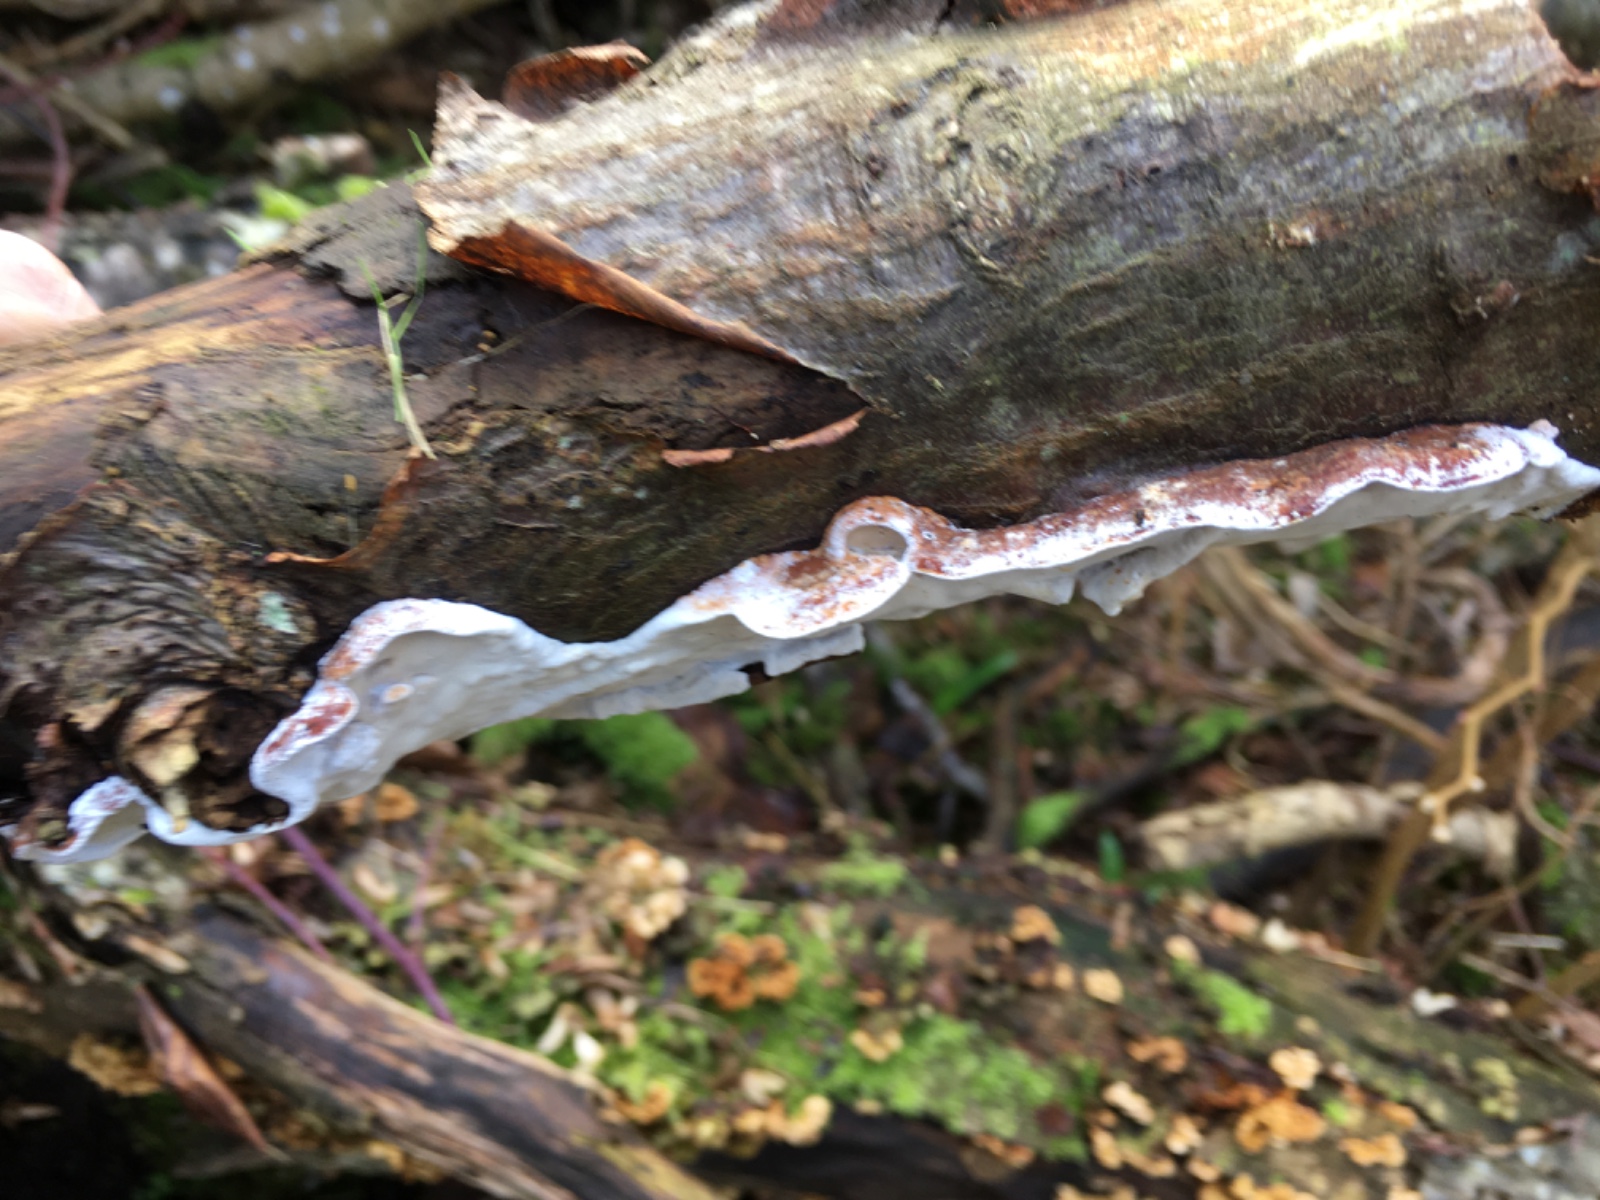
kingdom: Fungi
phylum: Basidiomycota
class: Agaricomycetes
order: Polyporales
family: Incrustoporiaceae
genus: Skeletocutis
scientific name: Skeletocutis nemoralis
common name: stor krystalporesvamp
